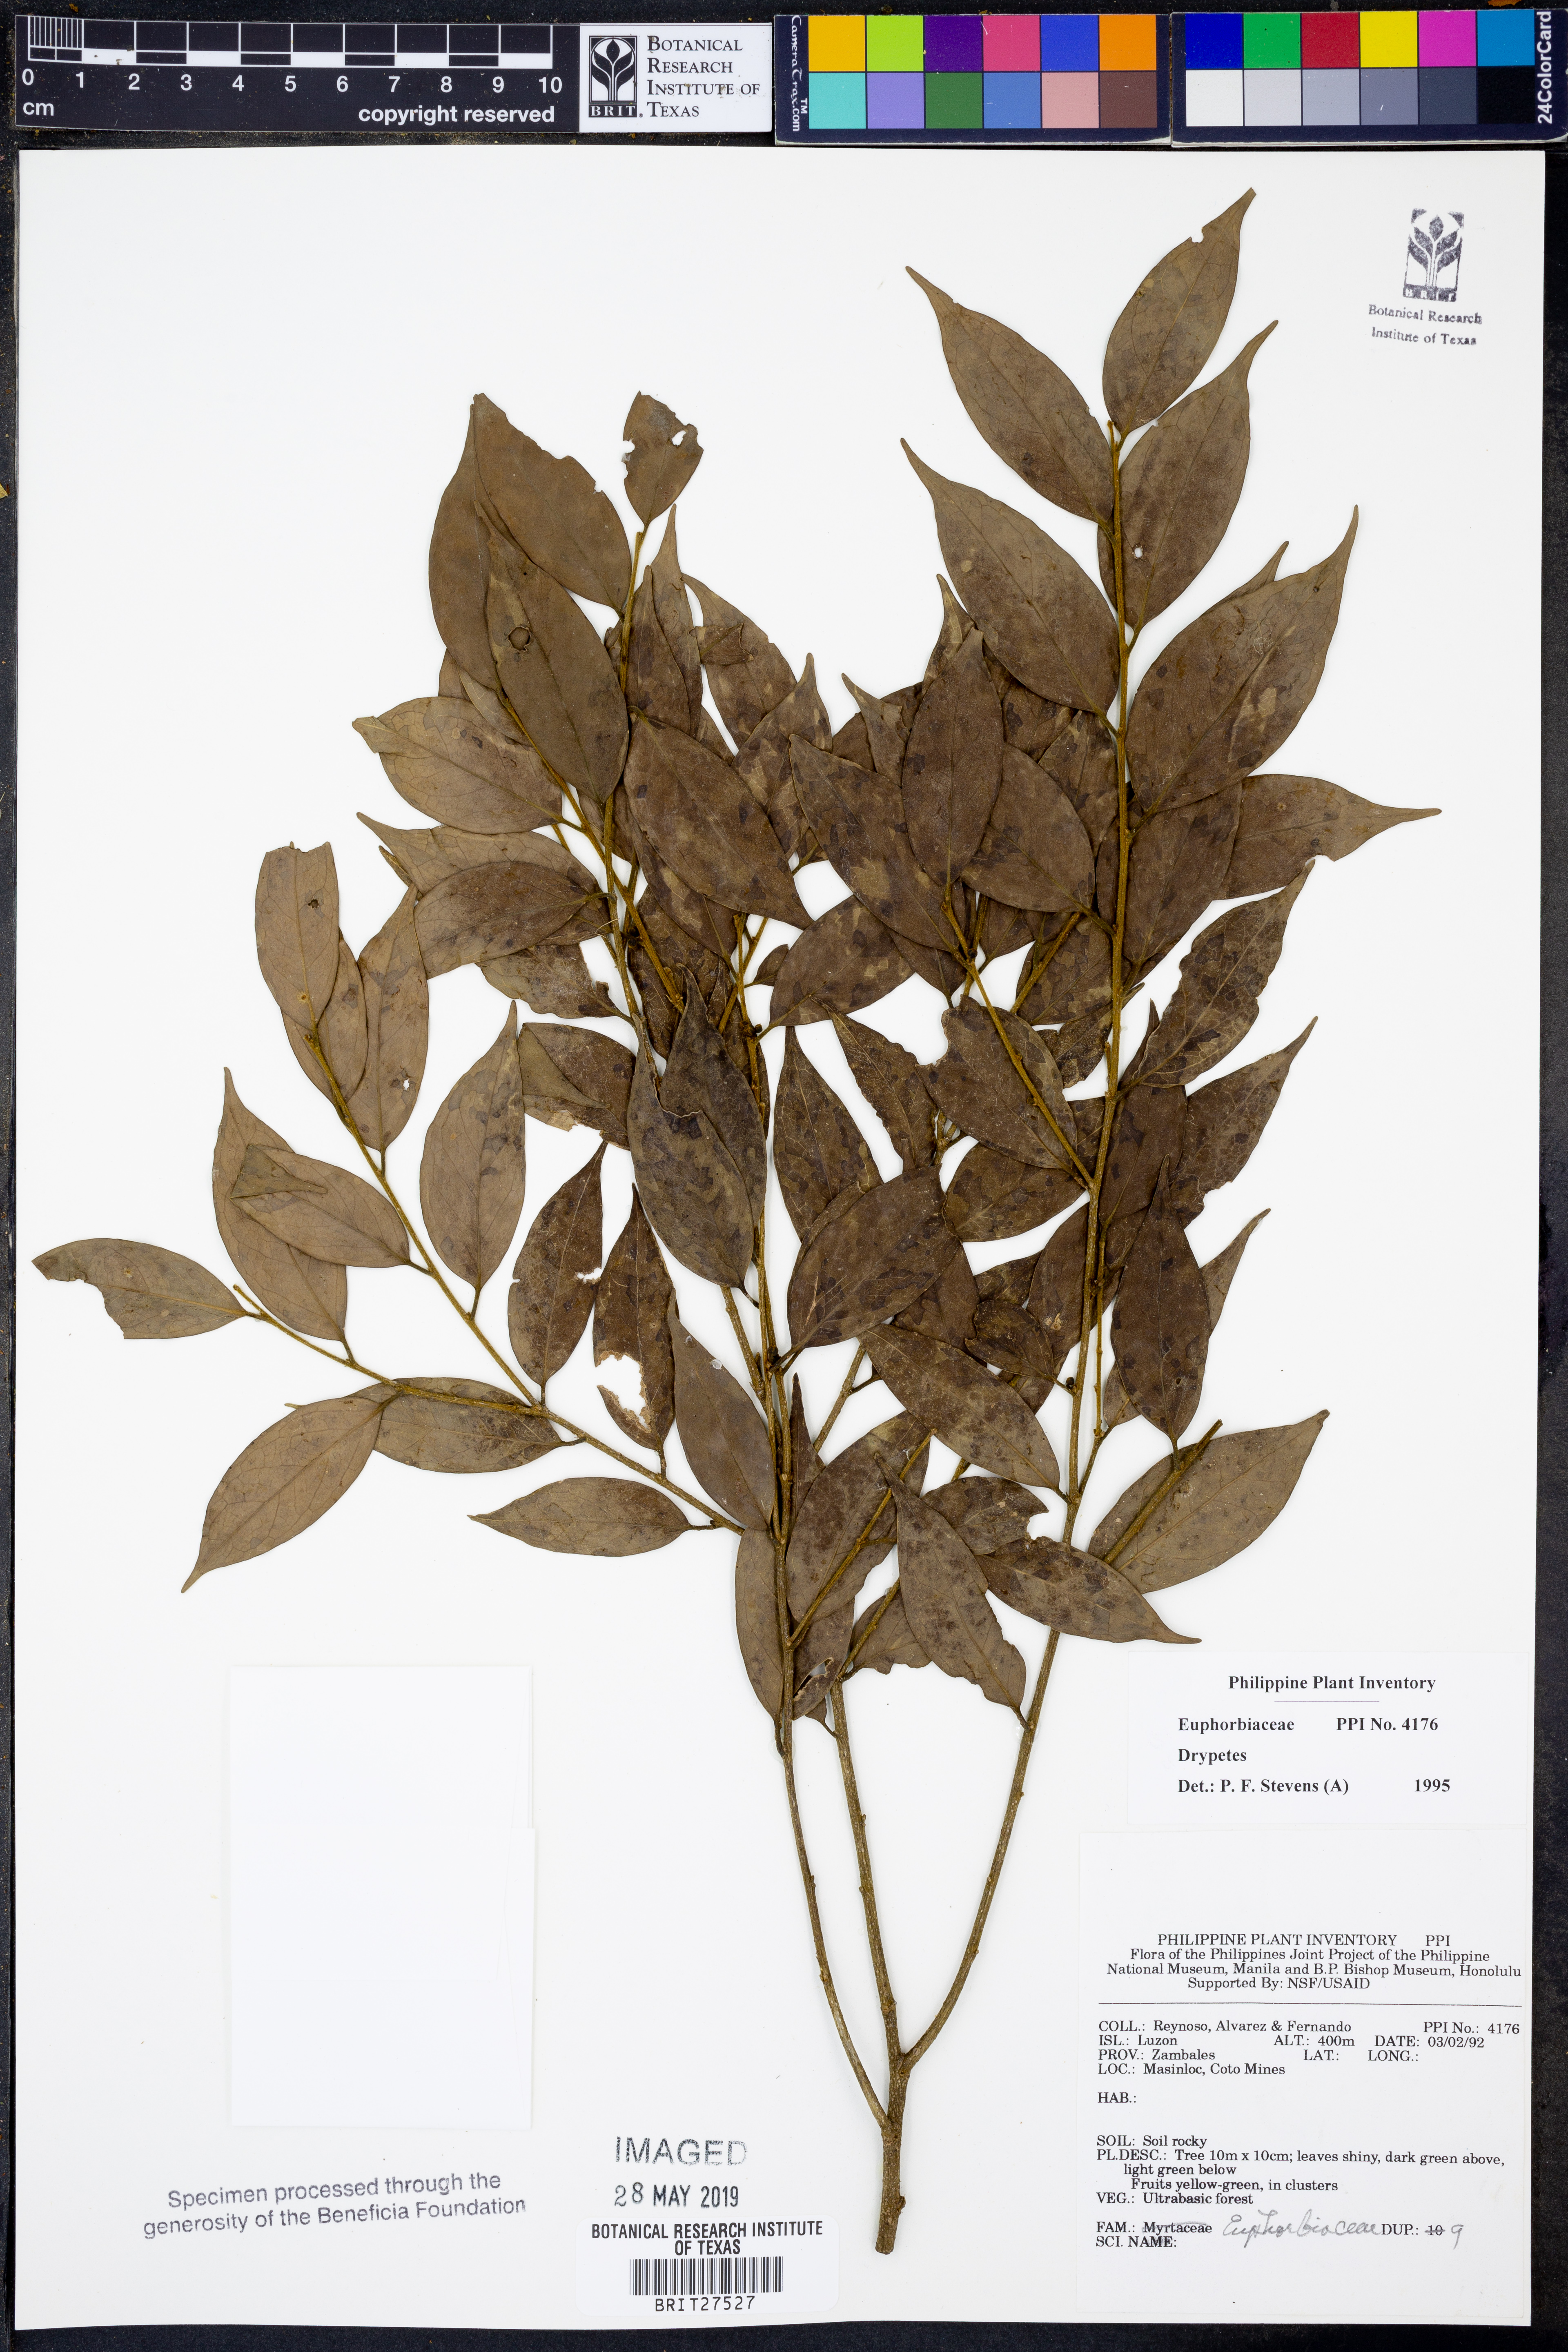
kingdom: Plantae
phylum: Tracheophyta
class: Magnoliopsida
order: Malpighiales
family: Putranjivaceae
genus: Drypetes
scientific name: Drypetes
